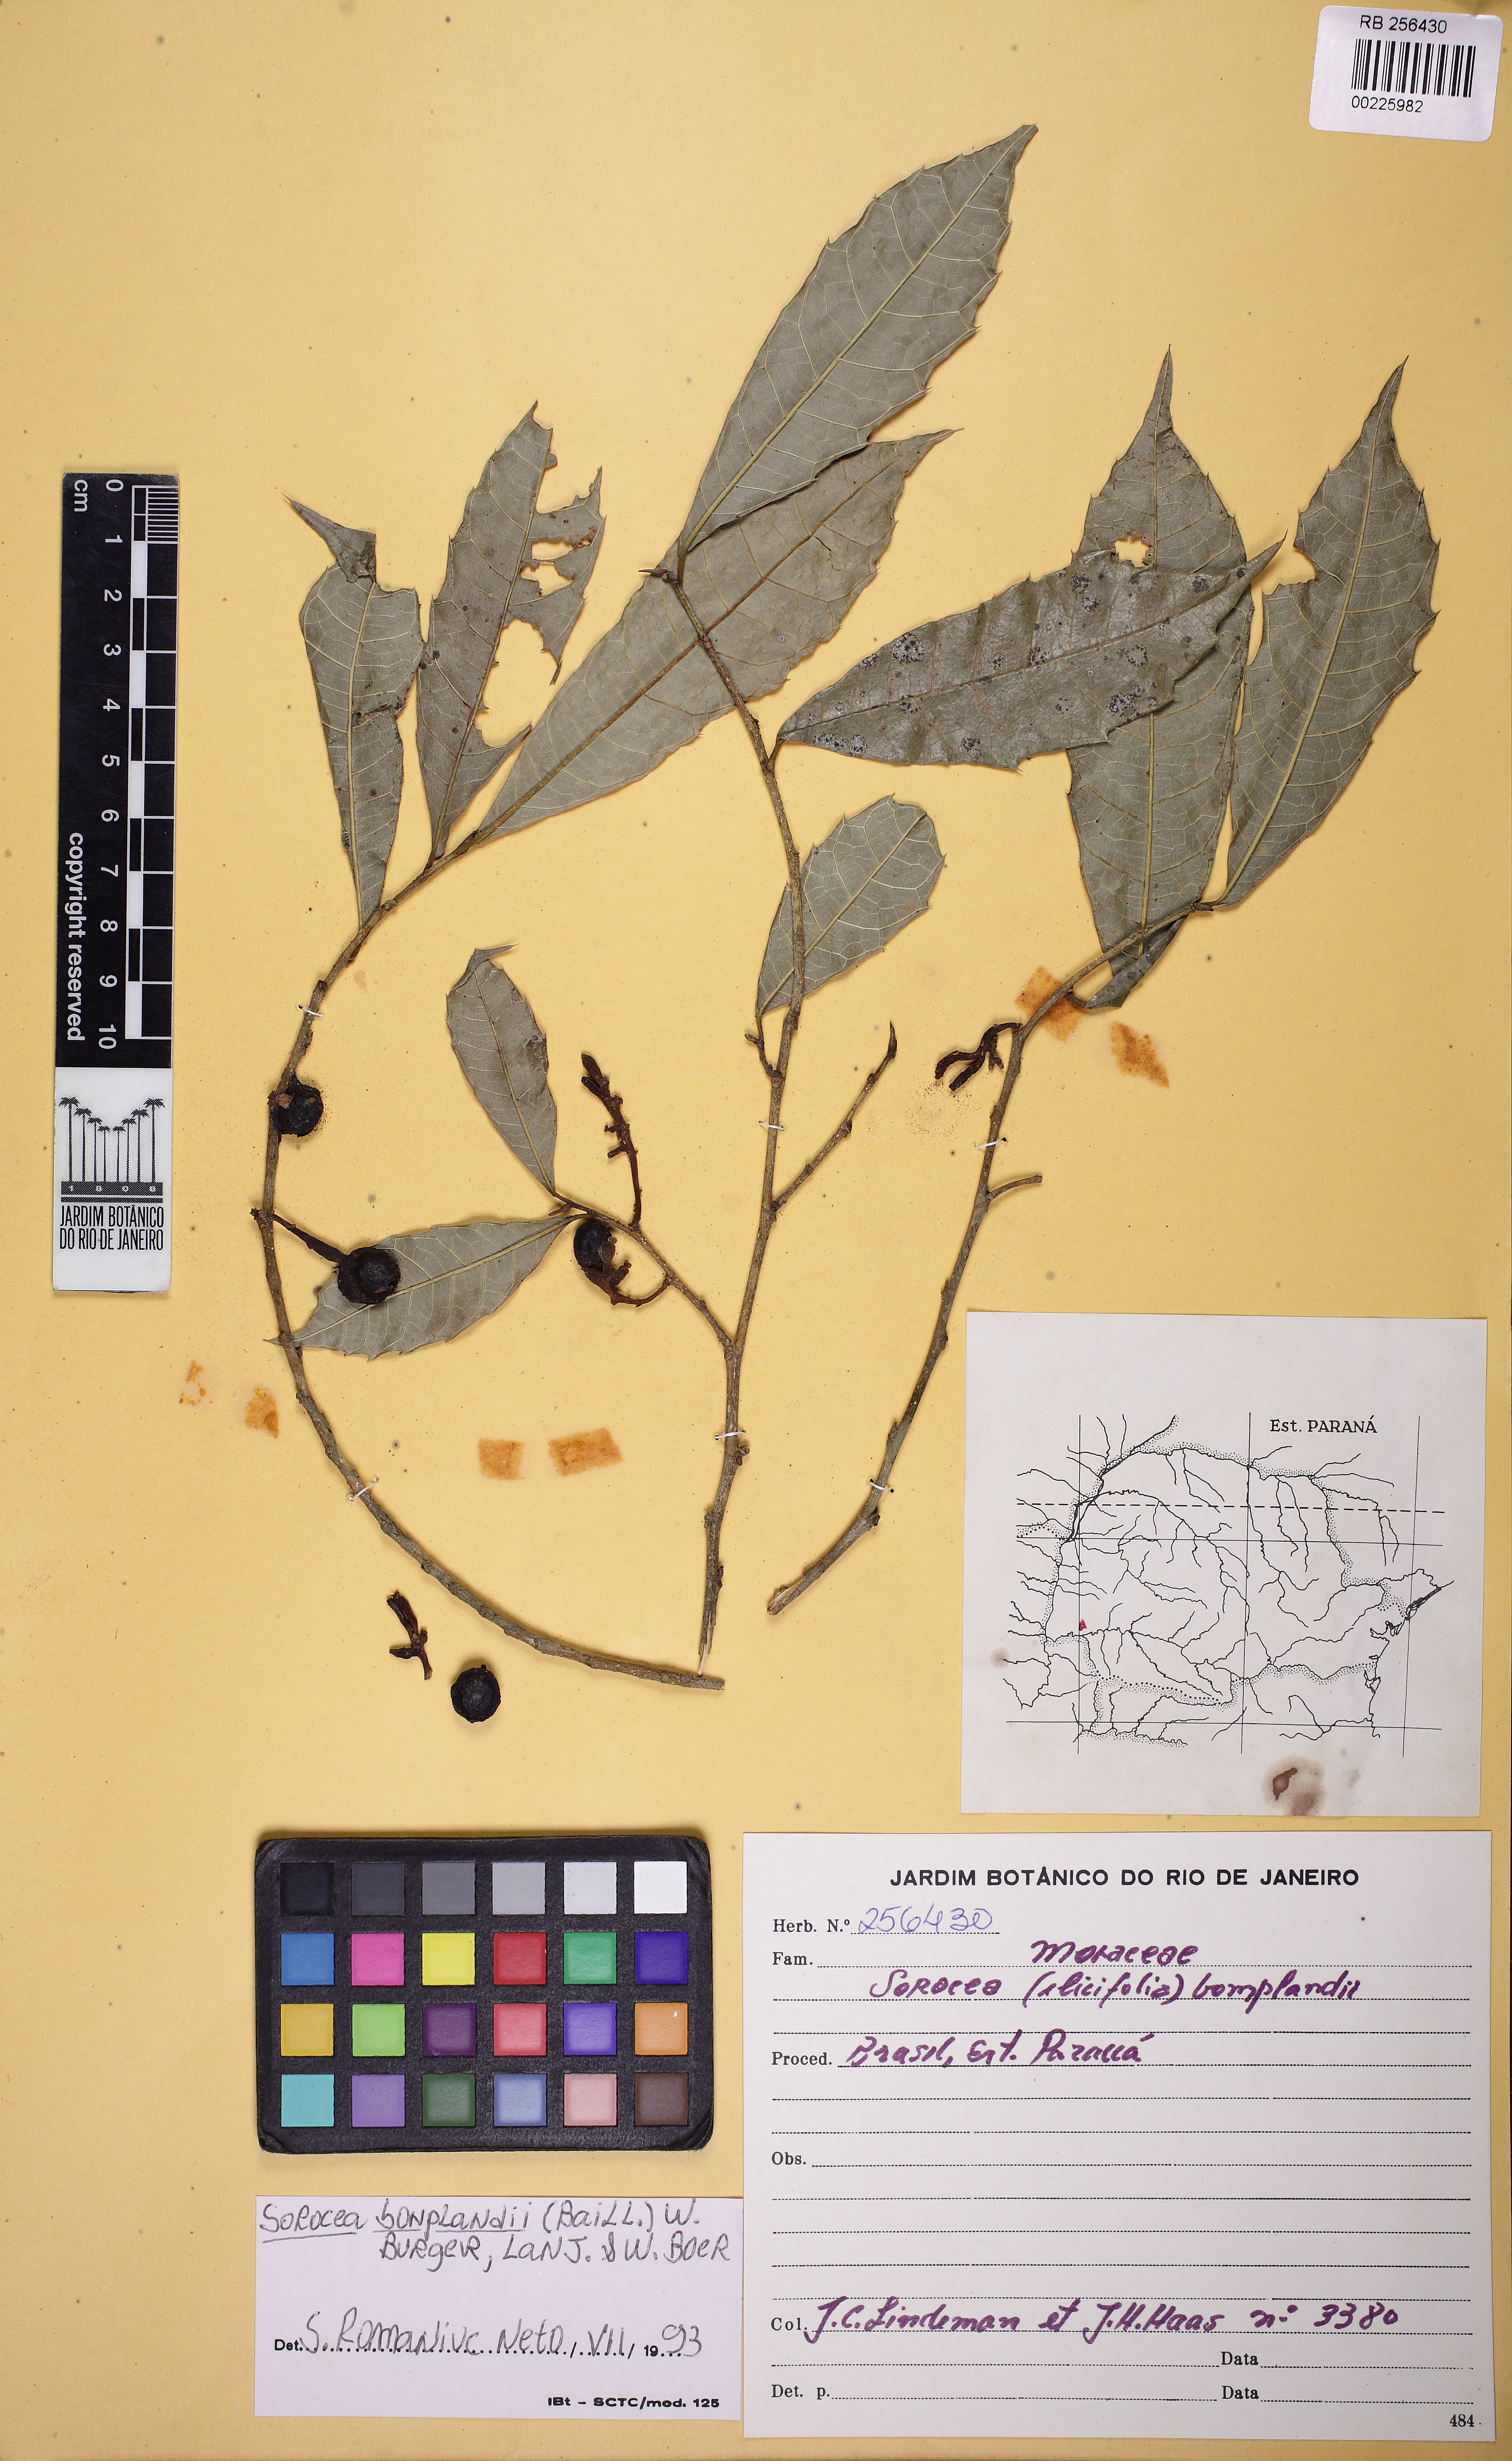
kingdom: Plantae
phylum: Tracheophyta
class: Magnoliopsida
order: Rosales
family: Moraceae
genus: Sorocea
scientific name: Sorocea bonplandii
